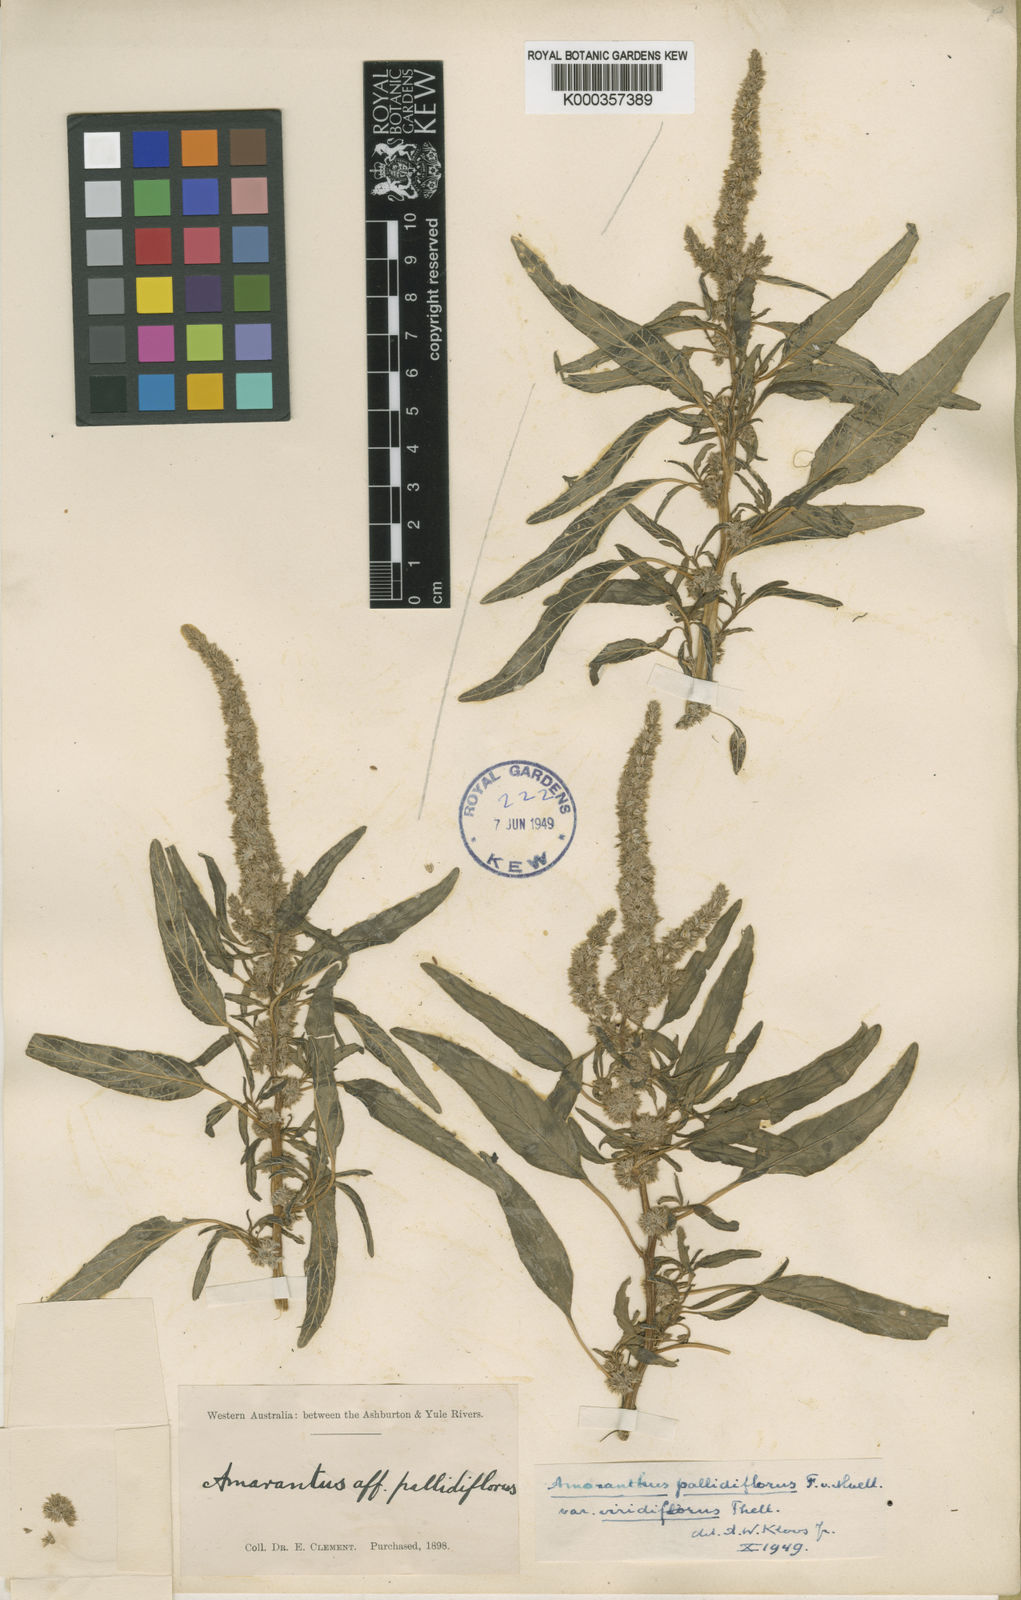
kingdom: Plantae
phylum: Tracheophyta
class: Magnoliopsida
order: Caryophyllales
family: Amaranthaceae
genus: Amaranthus
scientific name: Amaranthus undulatus
